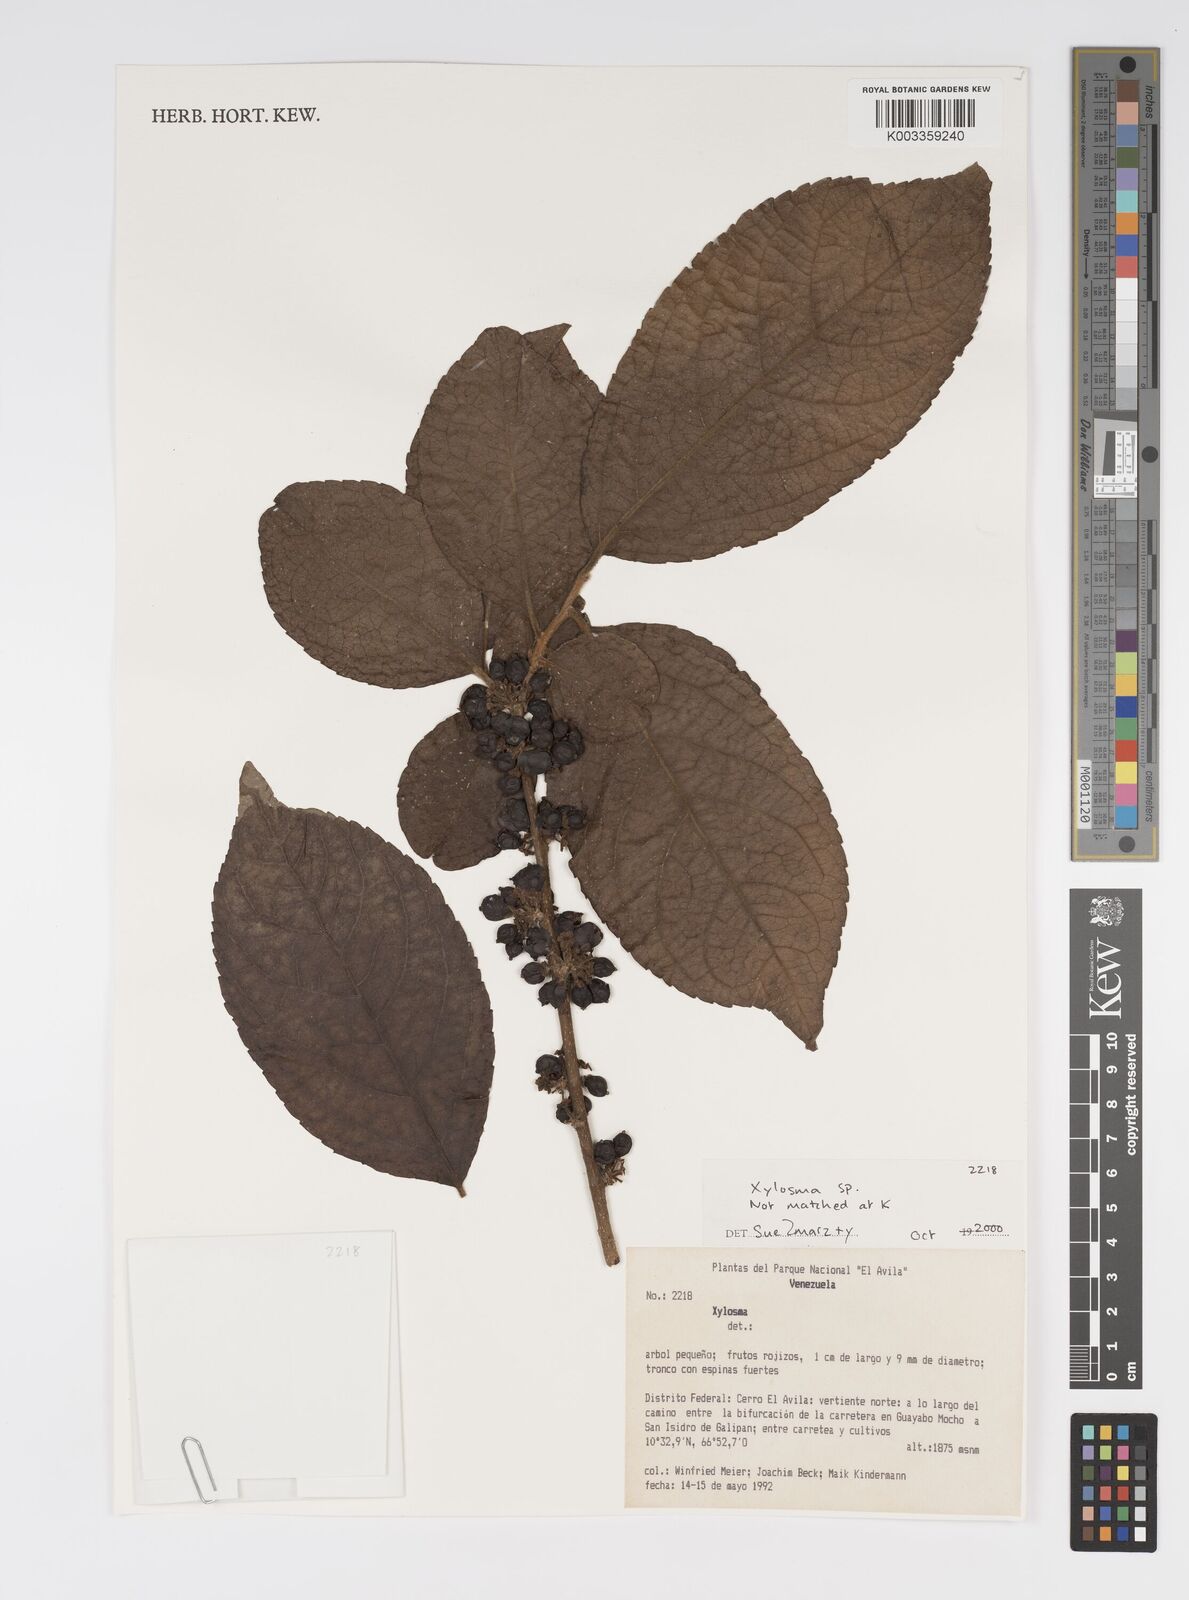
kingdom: Plantae
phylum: Tracheophyta
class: Magnoliopsida
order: Malpighiales
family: Salicaceae
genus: Xylosma
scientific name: Xylosma
